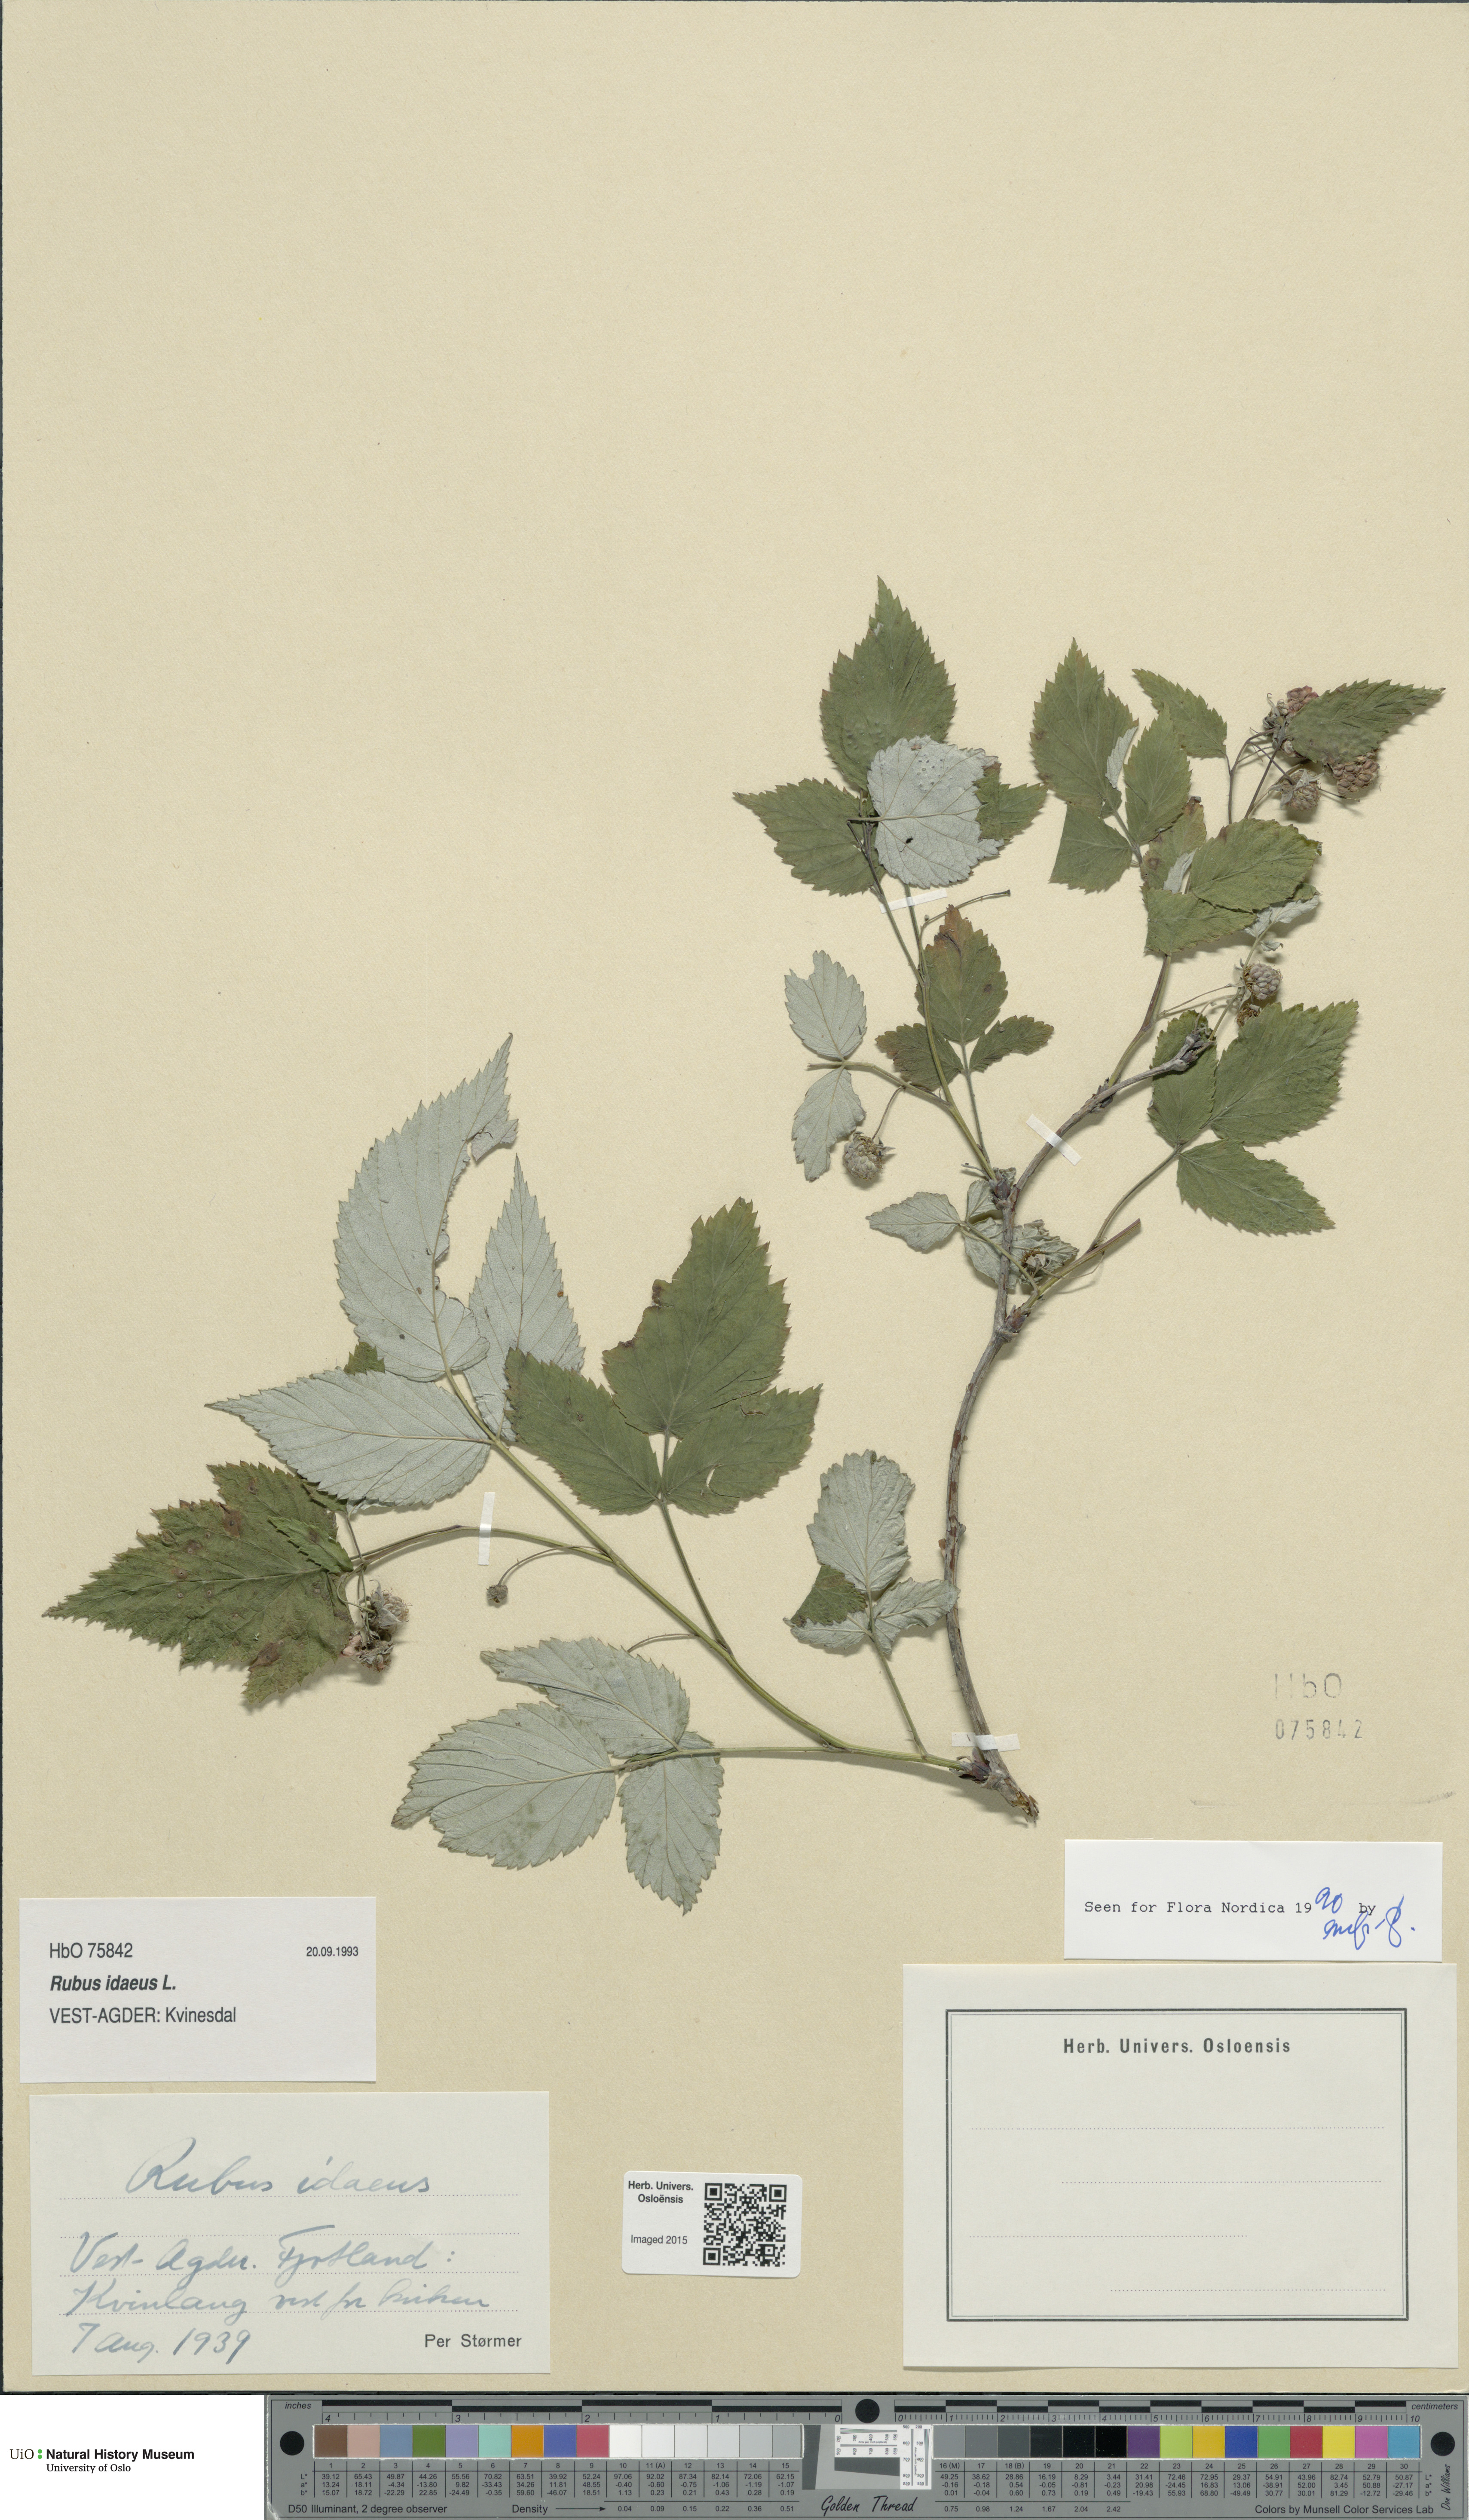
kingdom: Plantae
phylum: Tracheophyta
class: Magnoliopsida
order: Rosales
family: Rosaceae
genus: Rubus
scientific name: Rubus idaeus
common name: Raspberry
